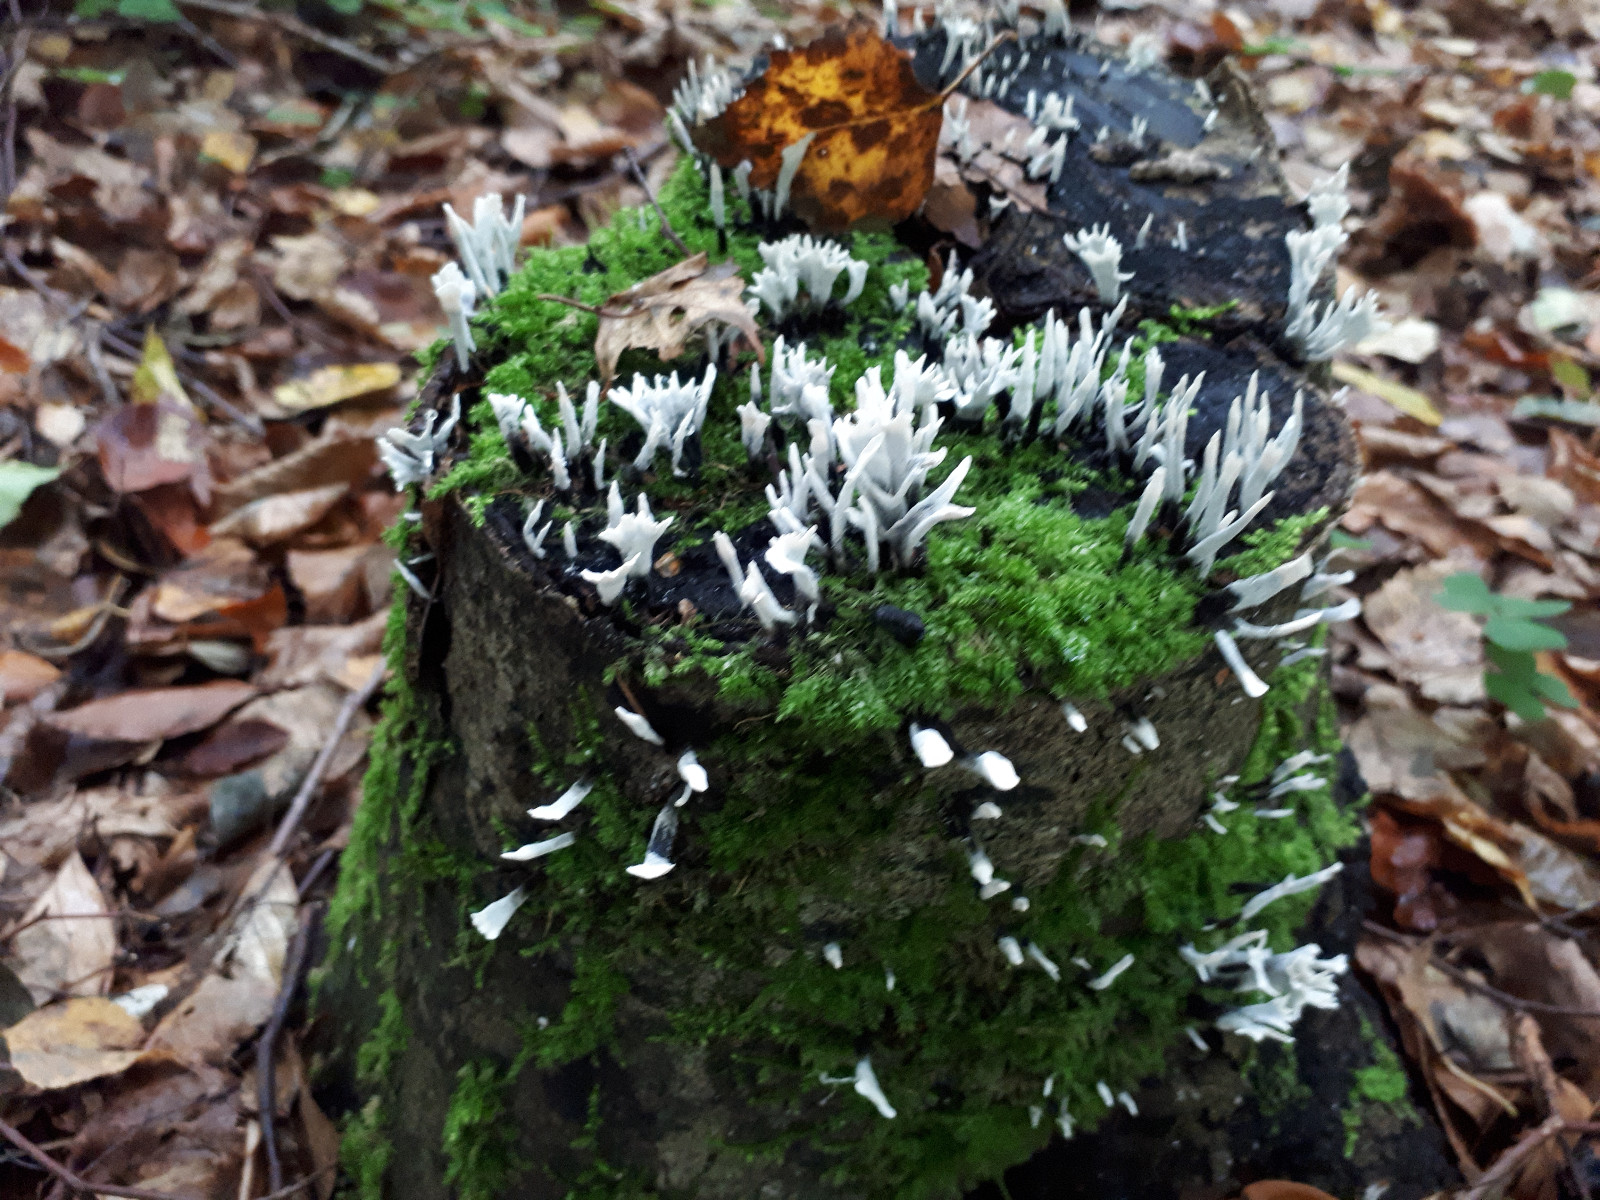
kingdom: Fungi
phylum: Ascomycota
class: Sordariomycetes
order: Xylariales
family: Xylariaceae
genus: Xylaria
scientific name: Xylaria hypoxylon
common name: grenet stødsvamp
